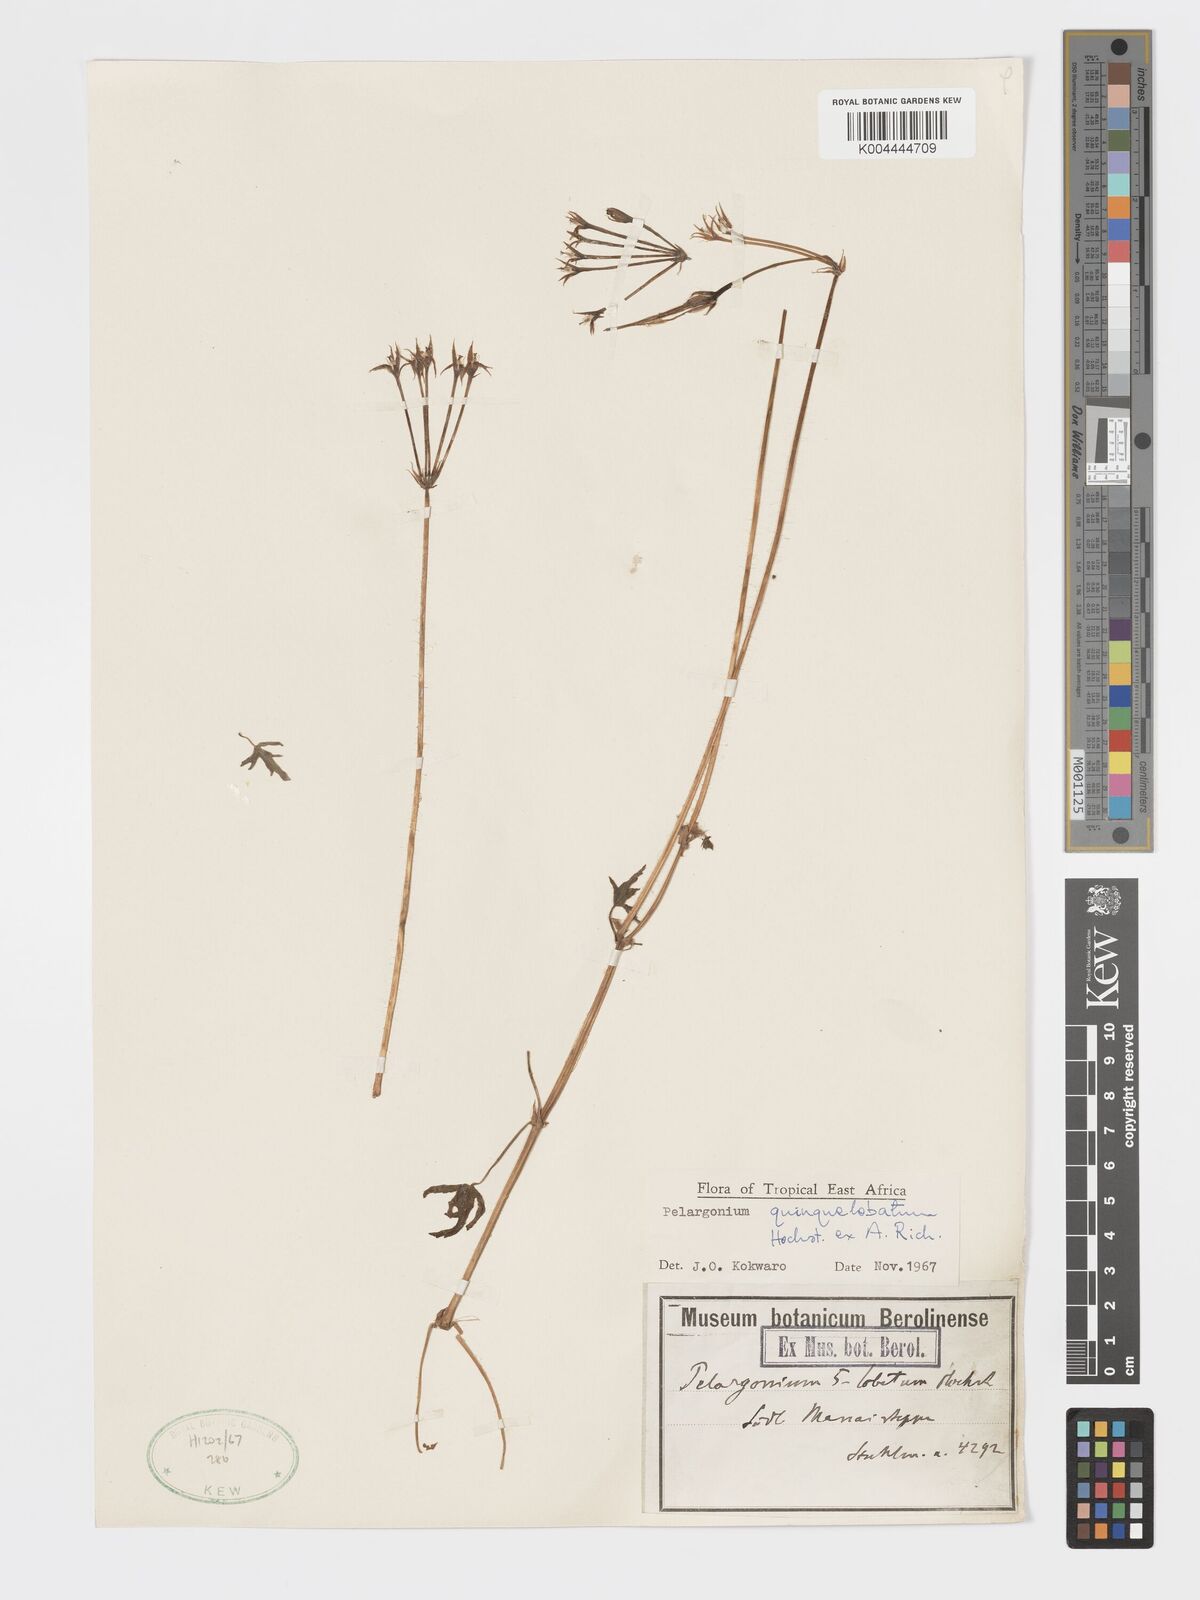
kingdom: Plantae
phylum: Tracheophyta
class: Magnoliopsida
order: Geraniales
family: Geraniaceae
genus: Pelargonium
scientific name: Pelargonium quinquelobatum
